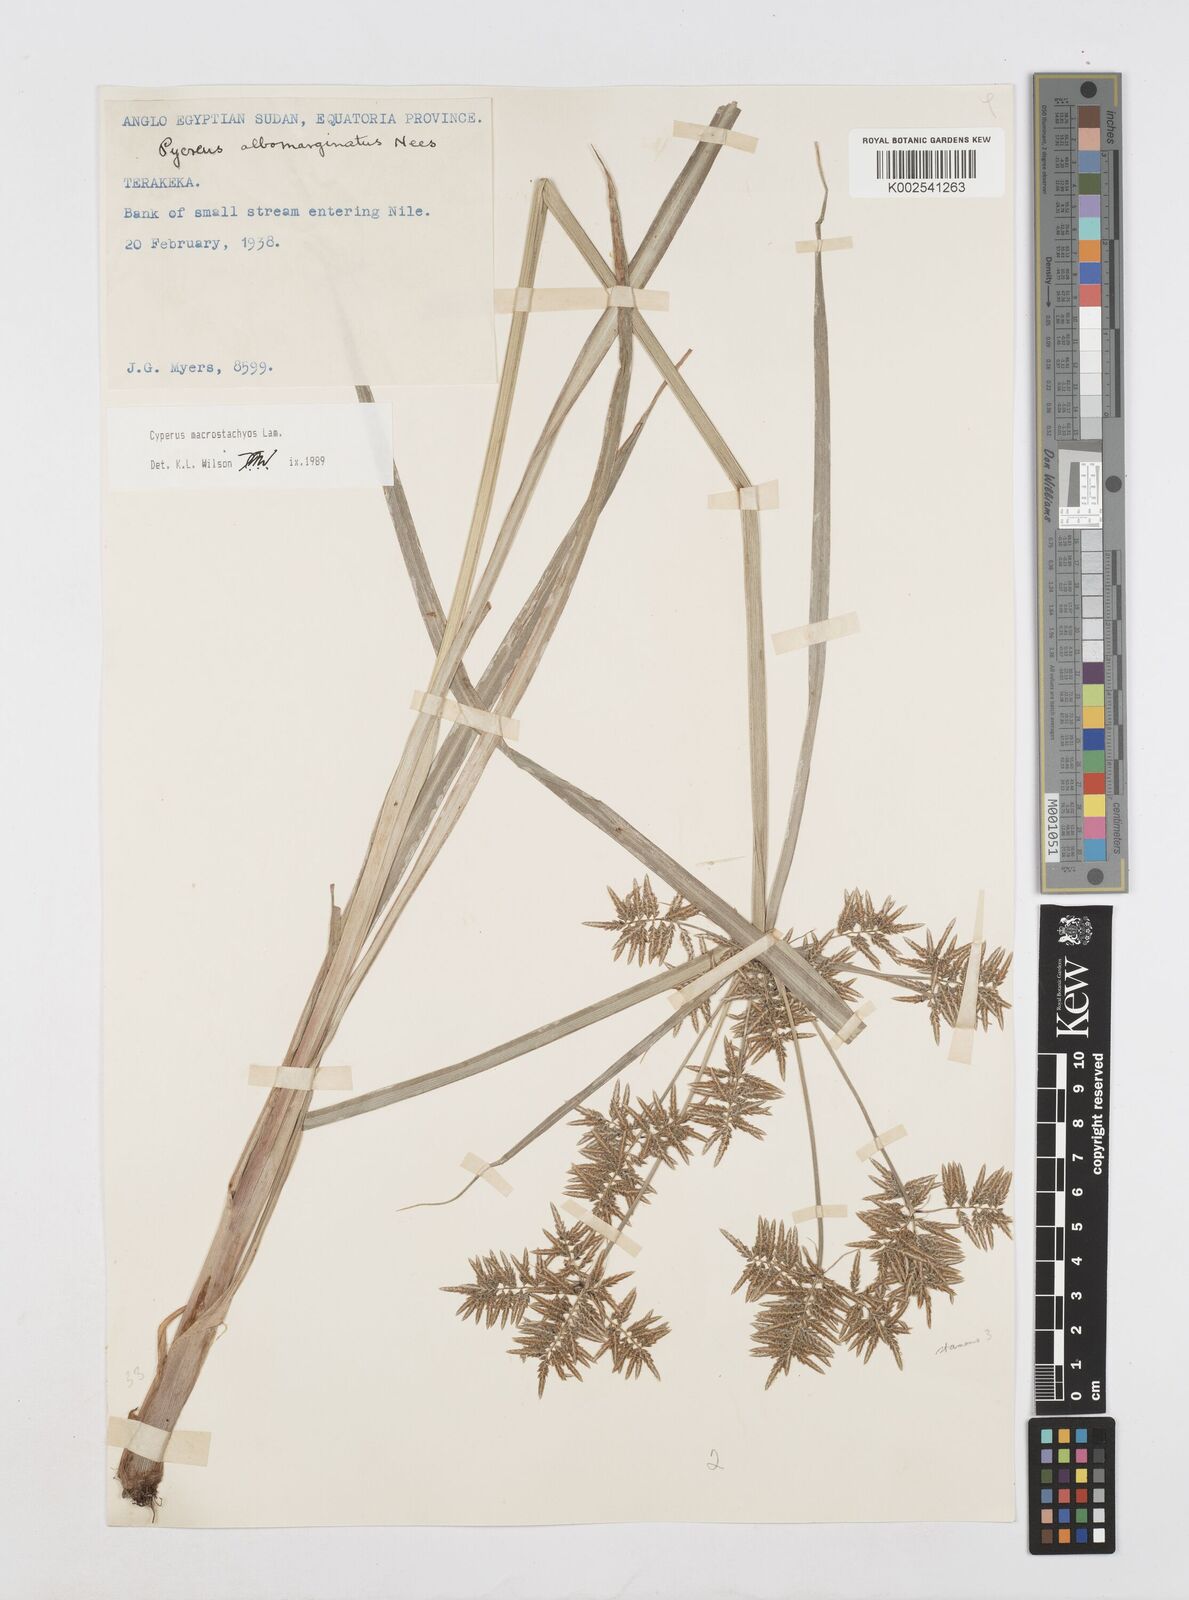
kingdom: Plantae
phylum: Tracheophyta
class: Liliopsida
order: Poales
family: Cyperaceae
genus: Cyperus
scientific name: Cyperus macrostachyos
